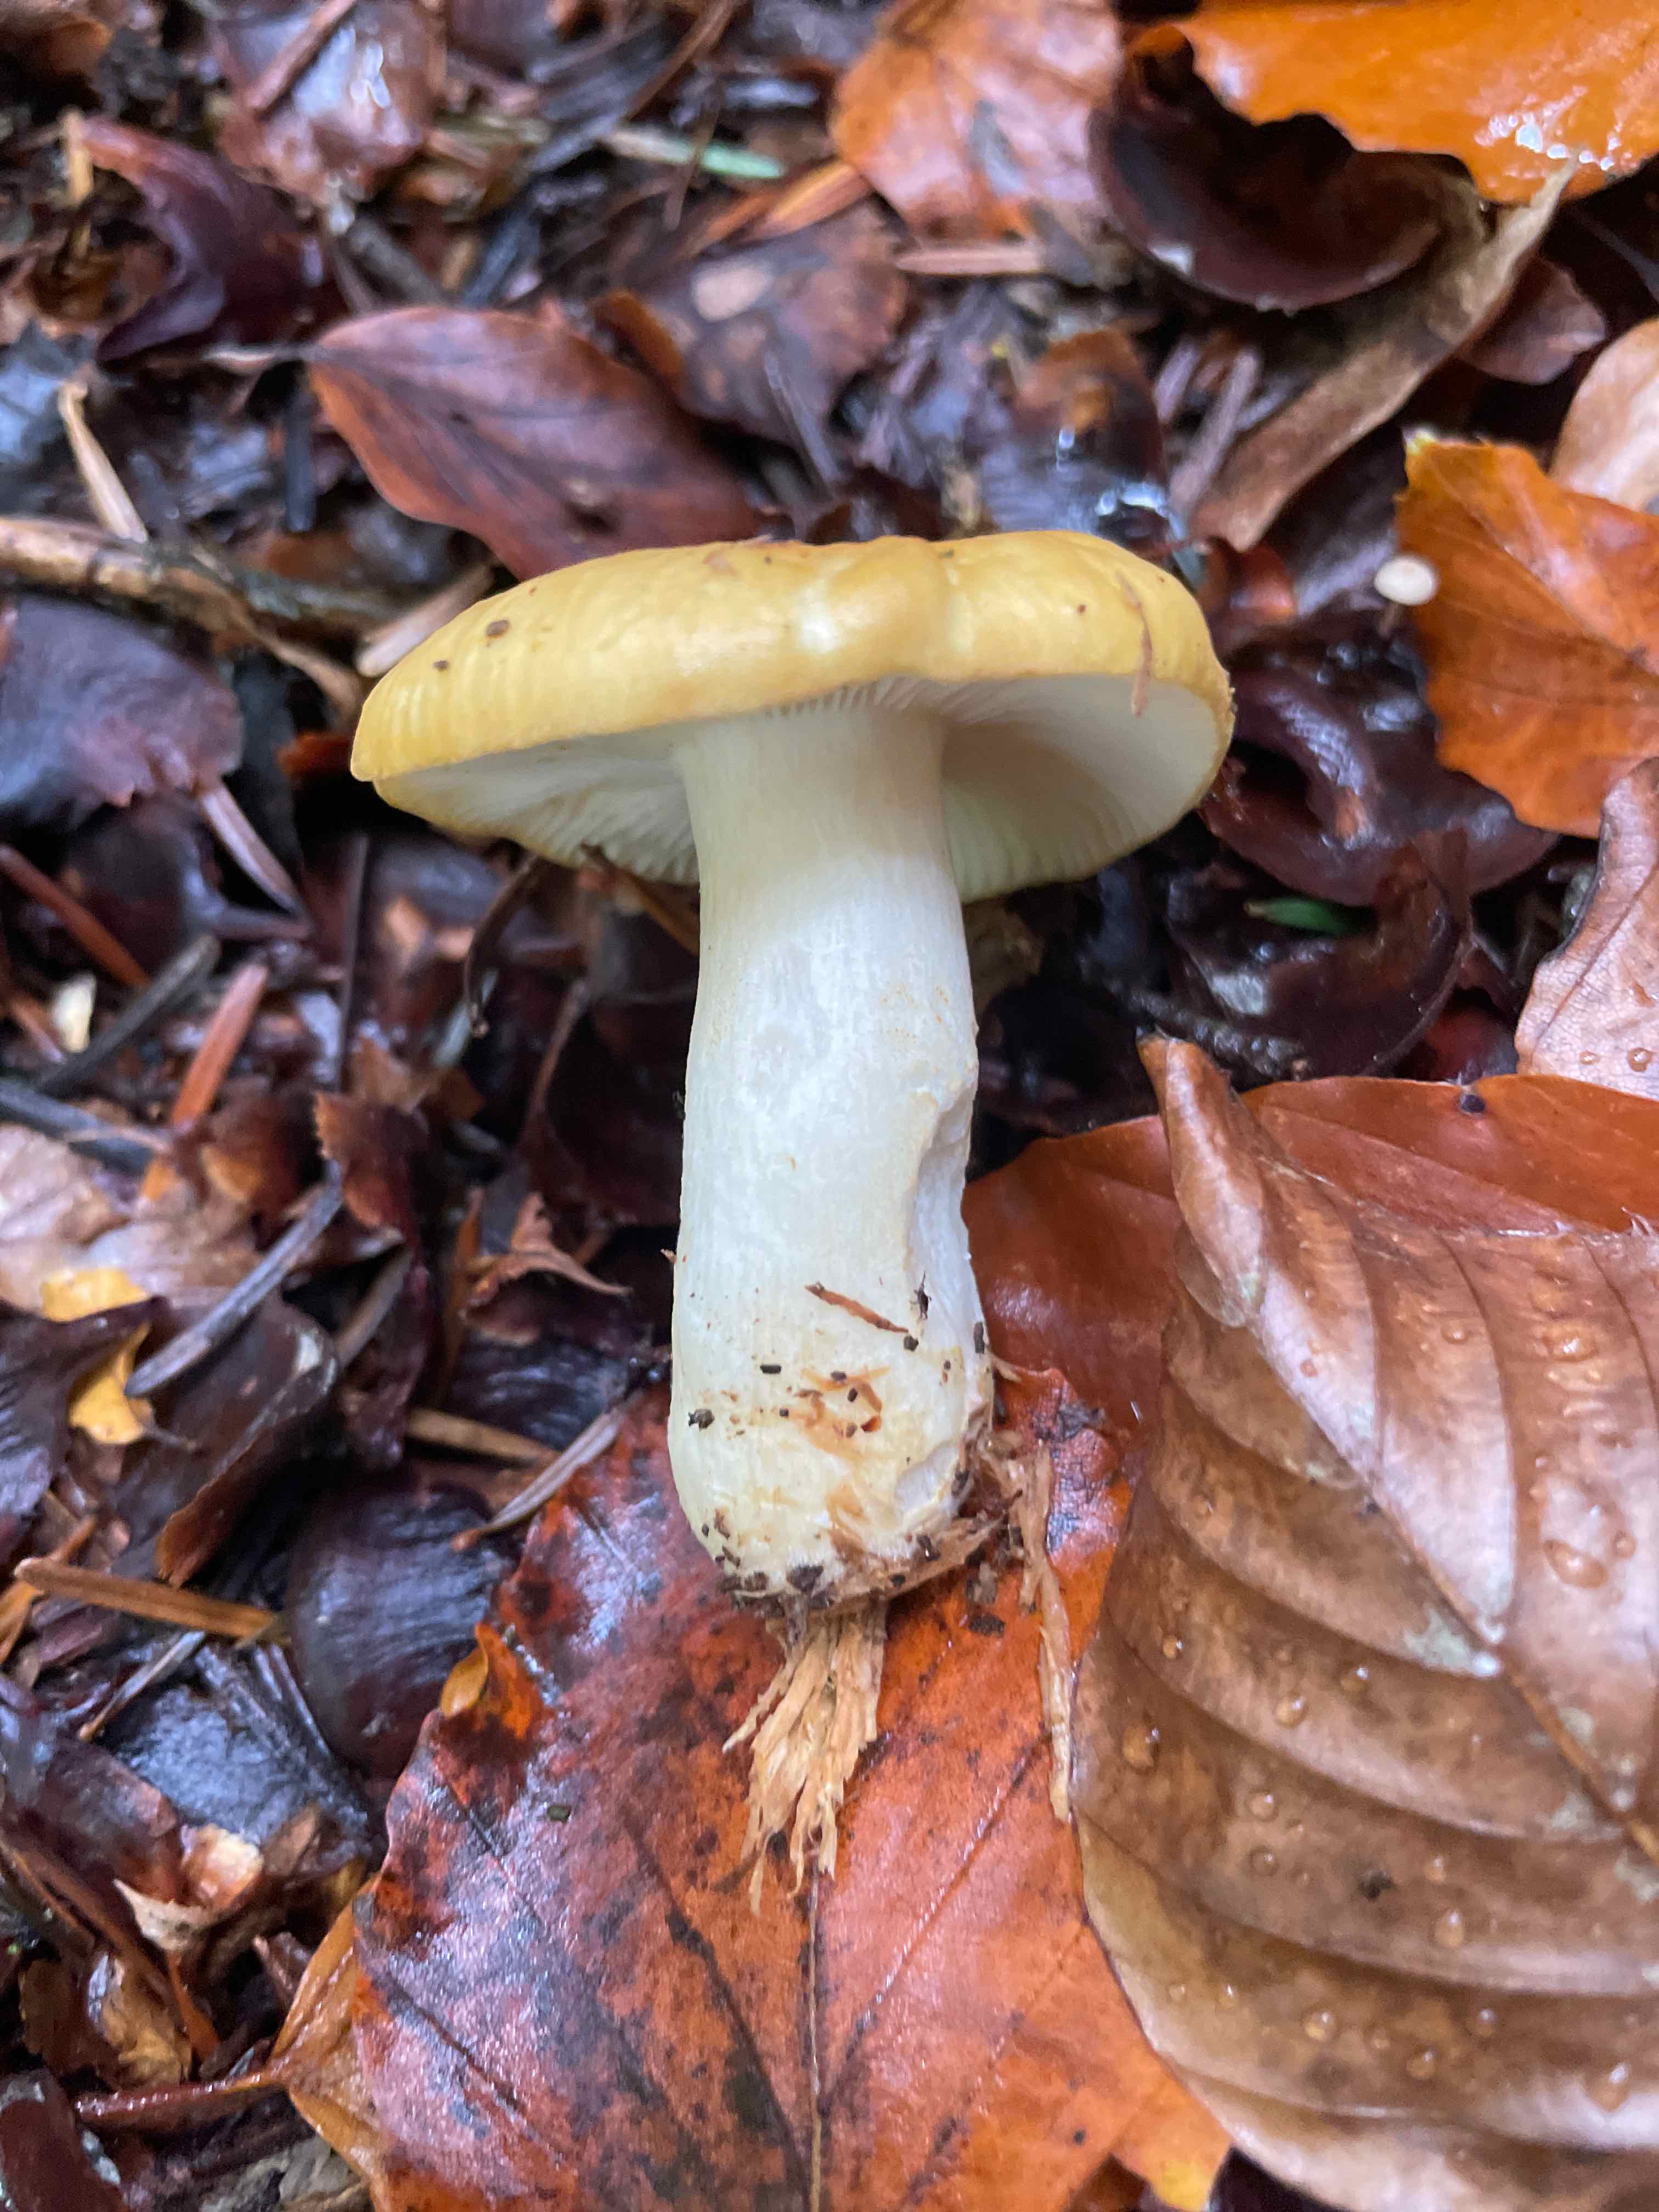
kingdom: Fungi
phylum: Basidiomycota
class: Agaricomycetes
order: Russulales
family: Russulaceae
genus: Russula
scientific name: Russula ochroleuca
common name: okkergul skørhat
